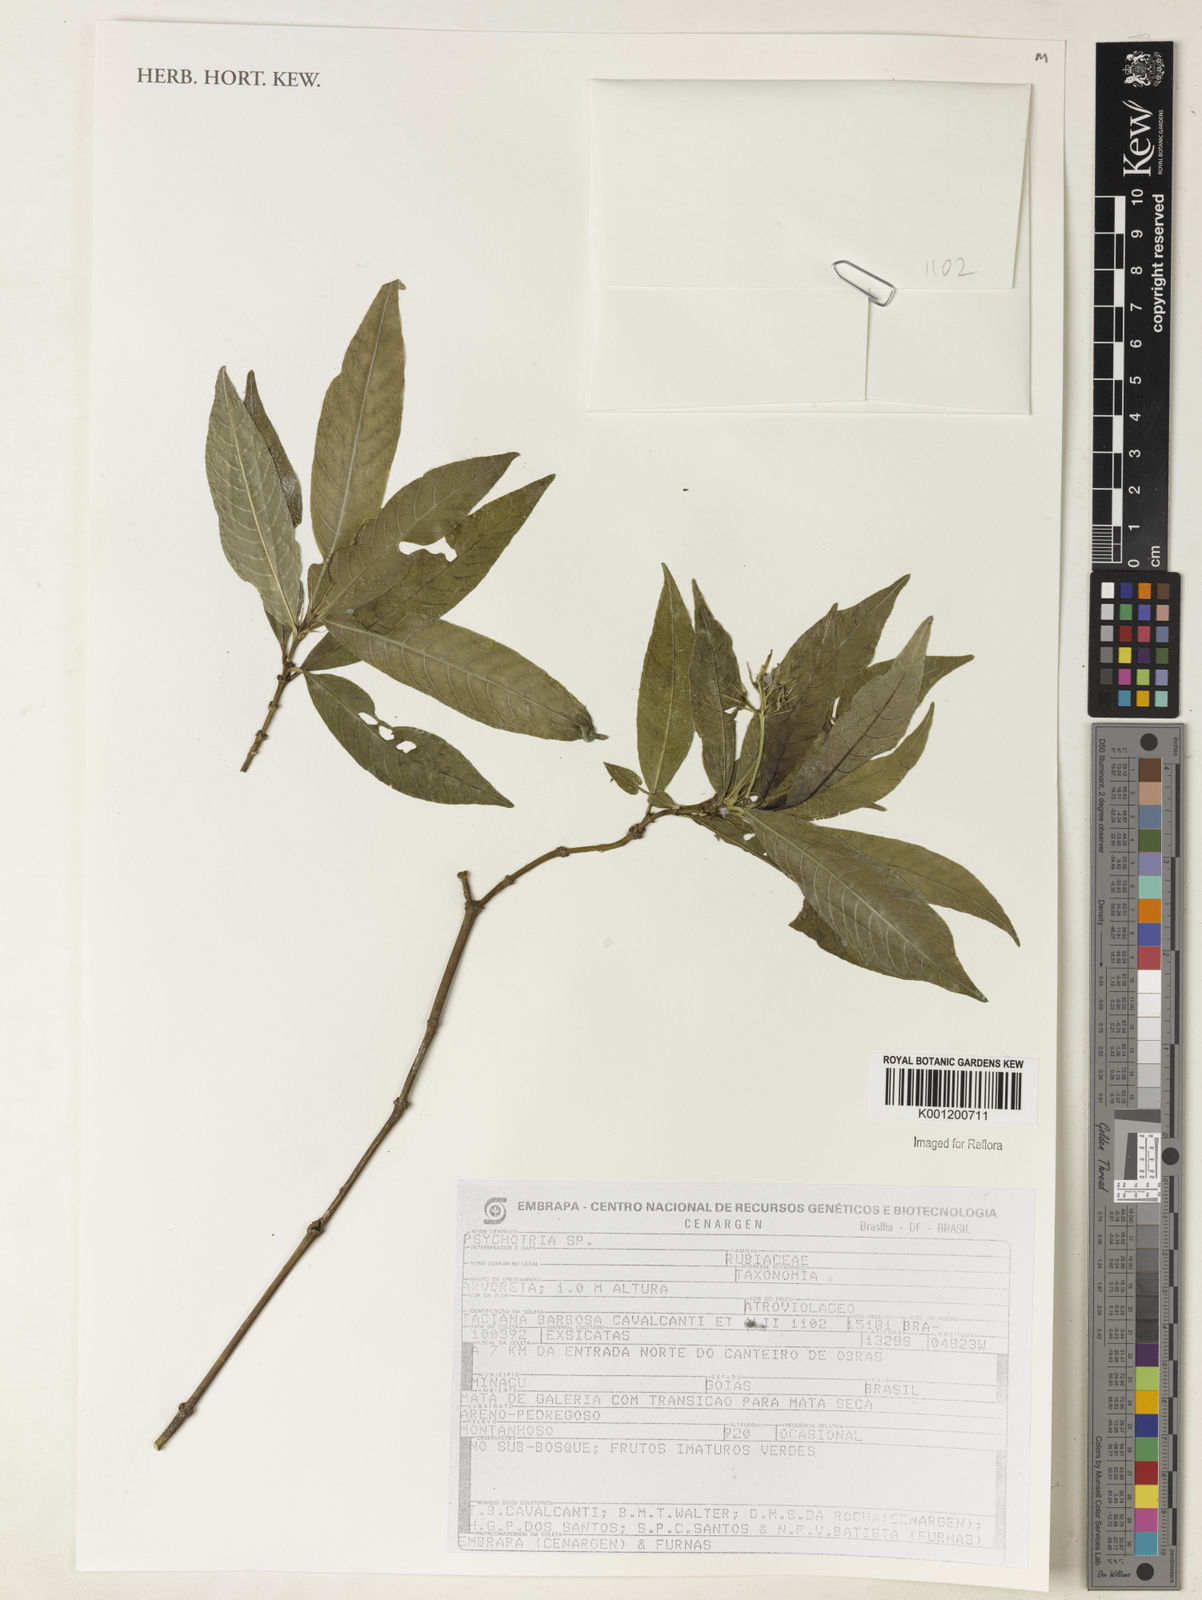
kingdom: Plantae
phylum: Tracheophyta
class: Magnoliopsida
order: Gentianales
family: Rubiaceae
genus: Psychotria
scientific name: Psychotria
